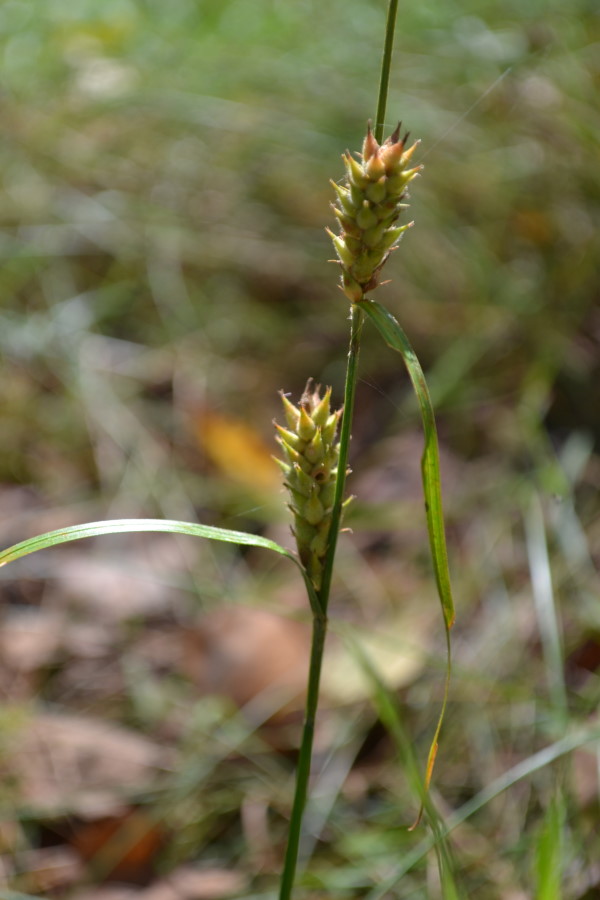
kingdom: Plantae
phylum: Tracheophyta
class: Liliopsida
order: Poales
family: Cyperaceae
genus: Carex
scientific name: Carex hirta
